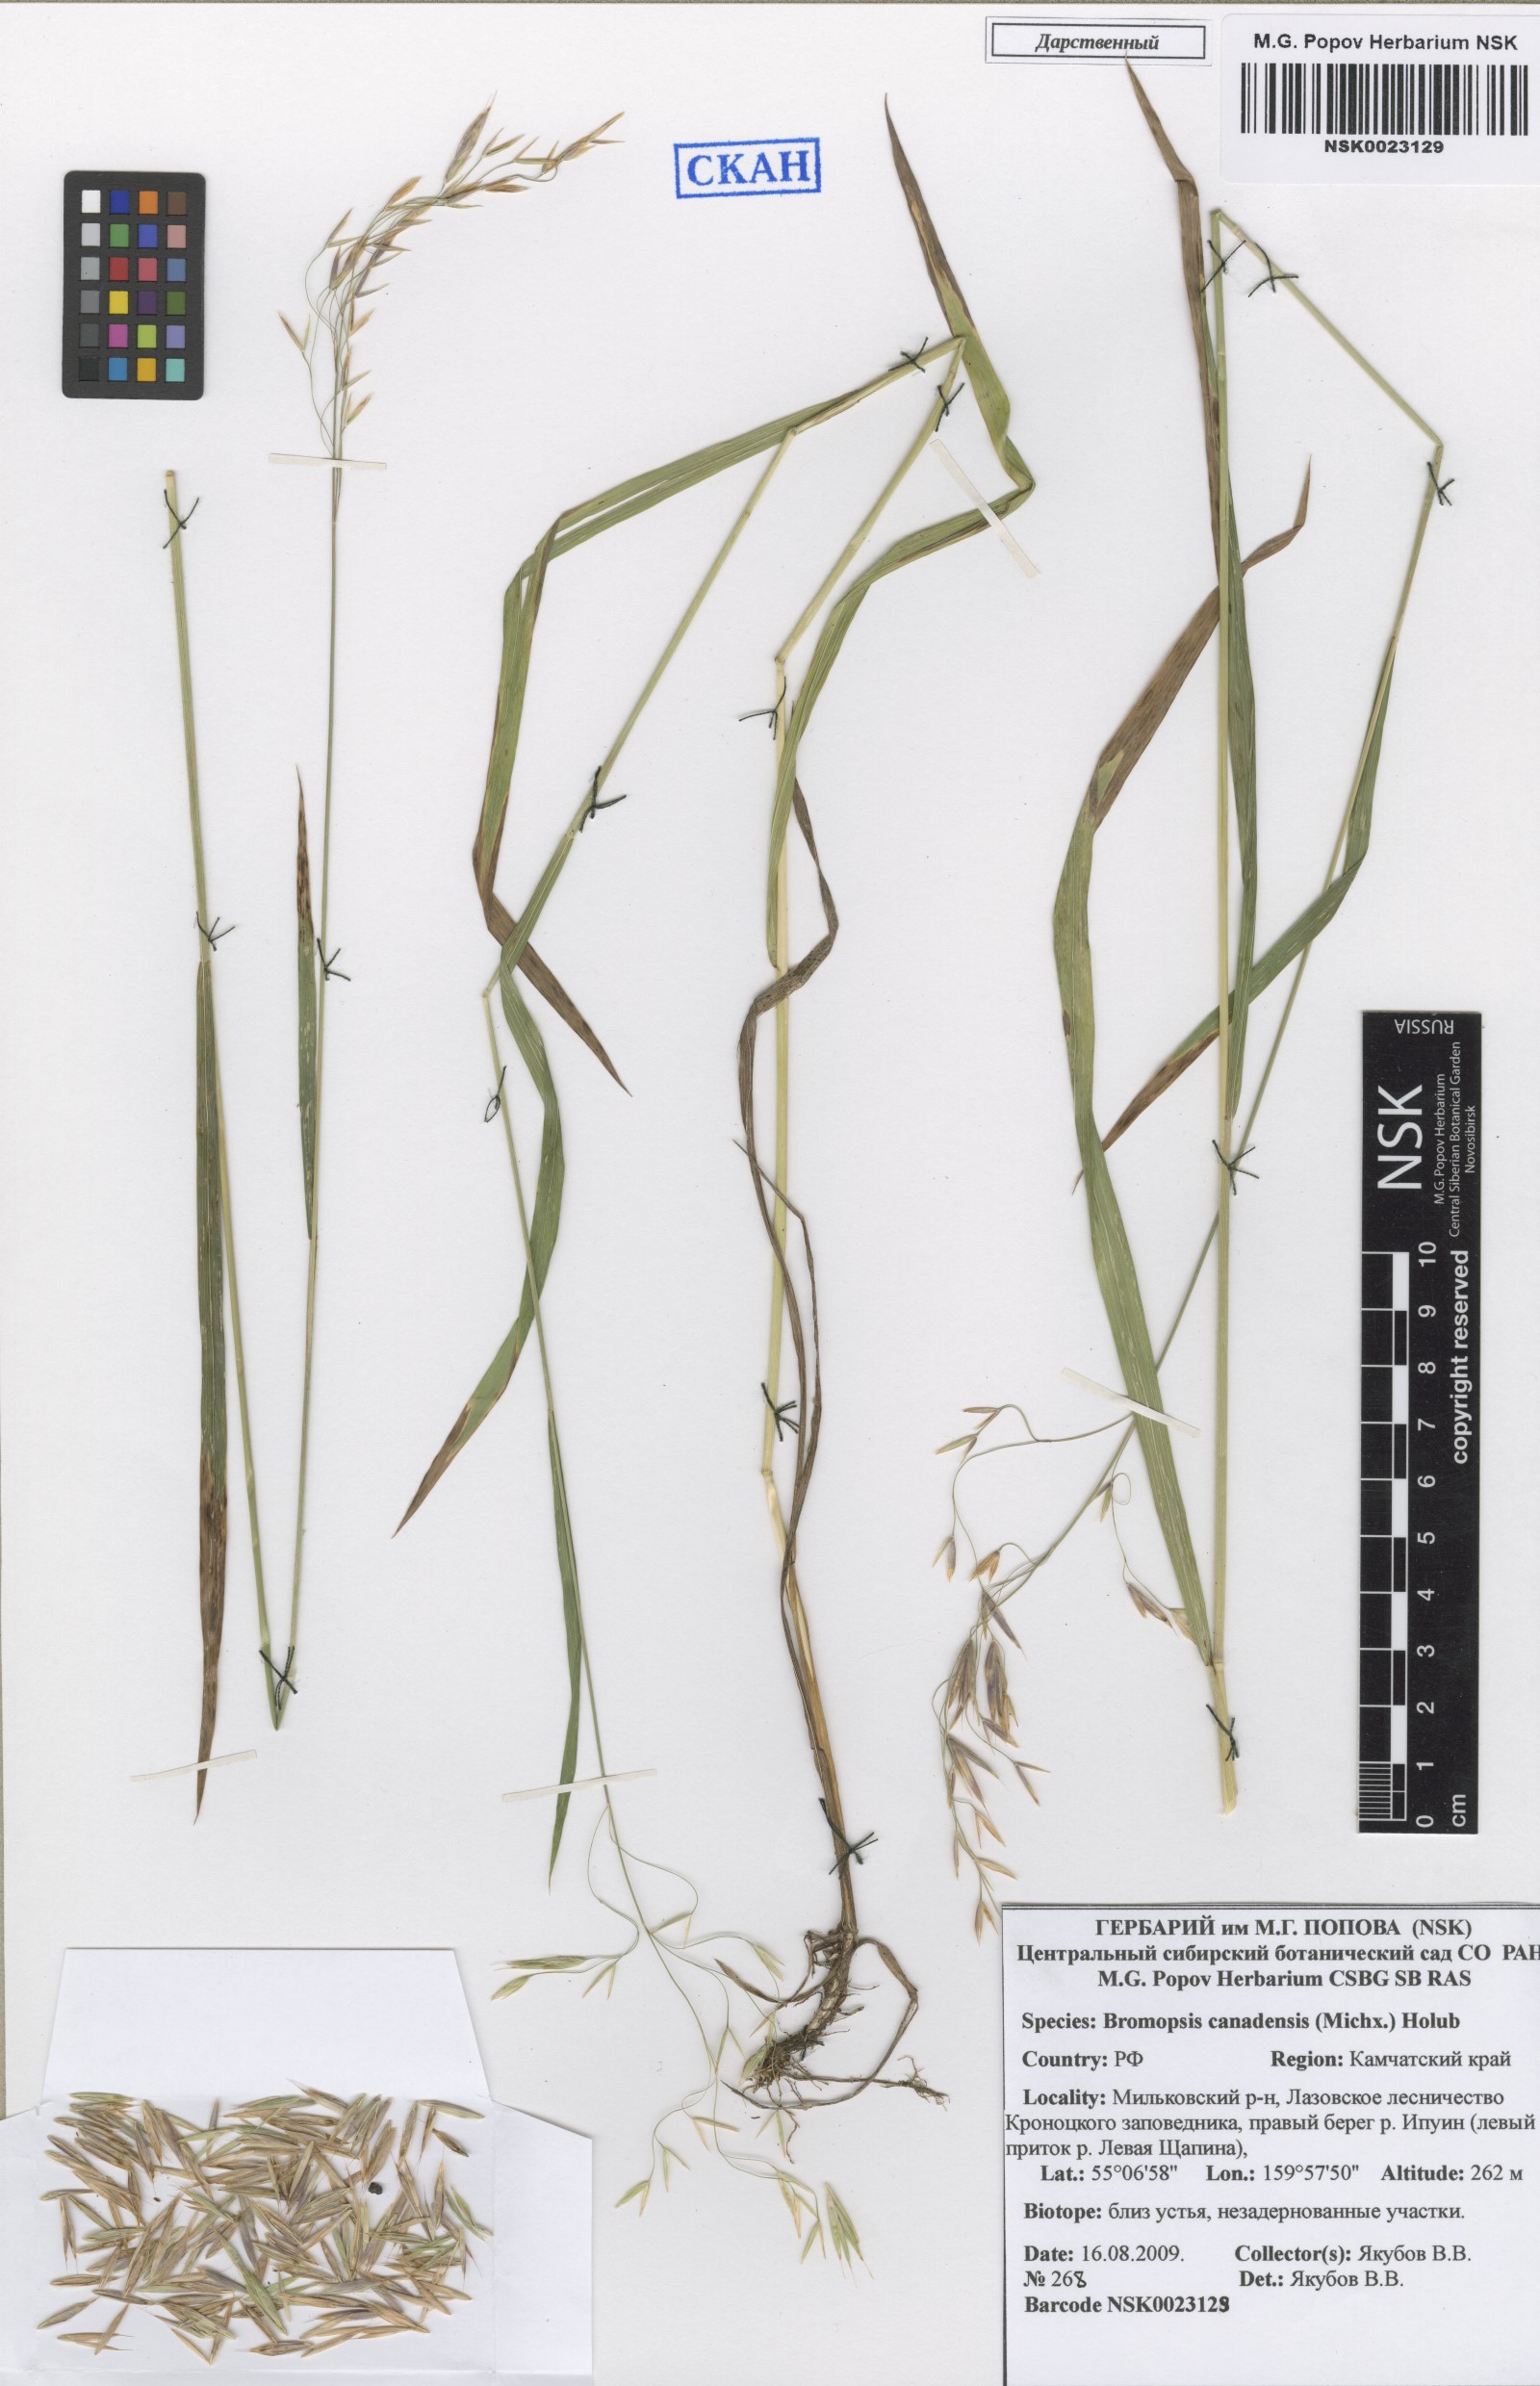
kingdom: Plantae
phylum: Tracheophyta
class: Liliopsida
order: Poales
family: Poaceae
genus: Bromus
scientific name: Bromus ciliatus
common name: Fringe brome
